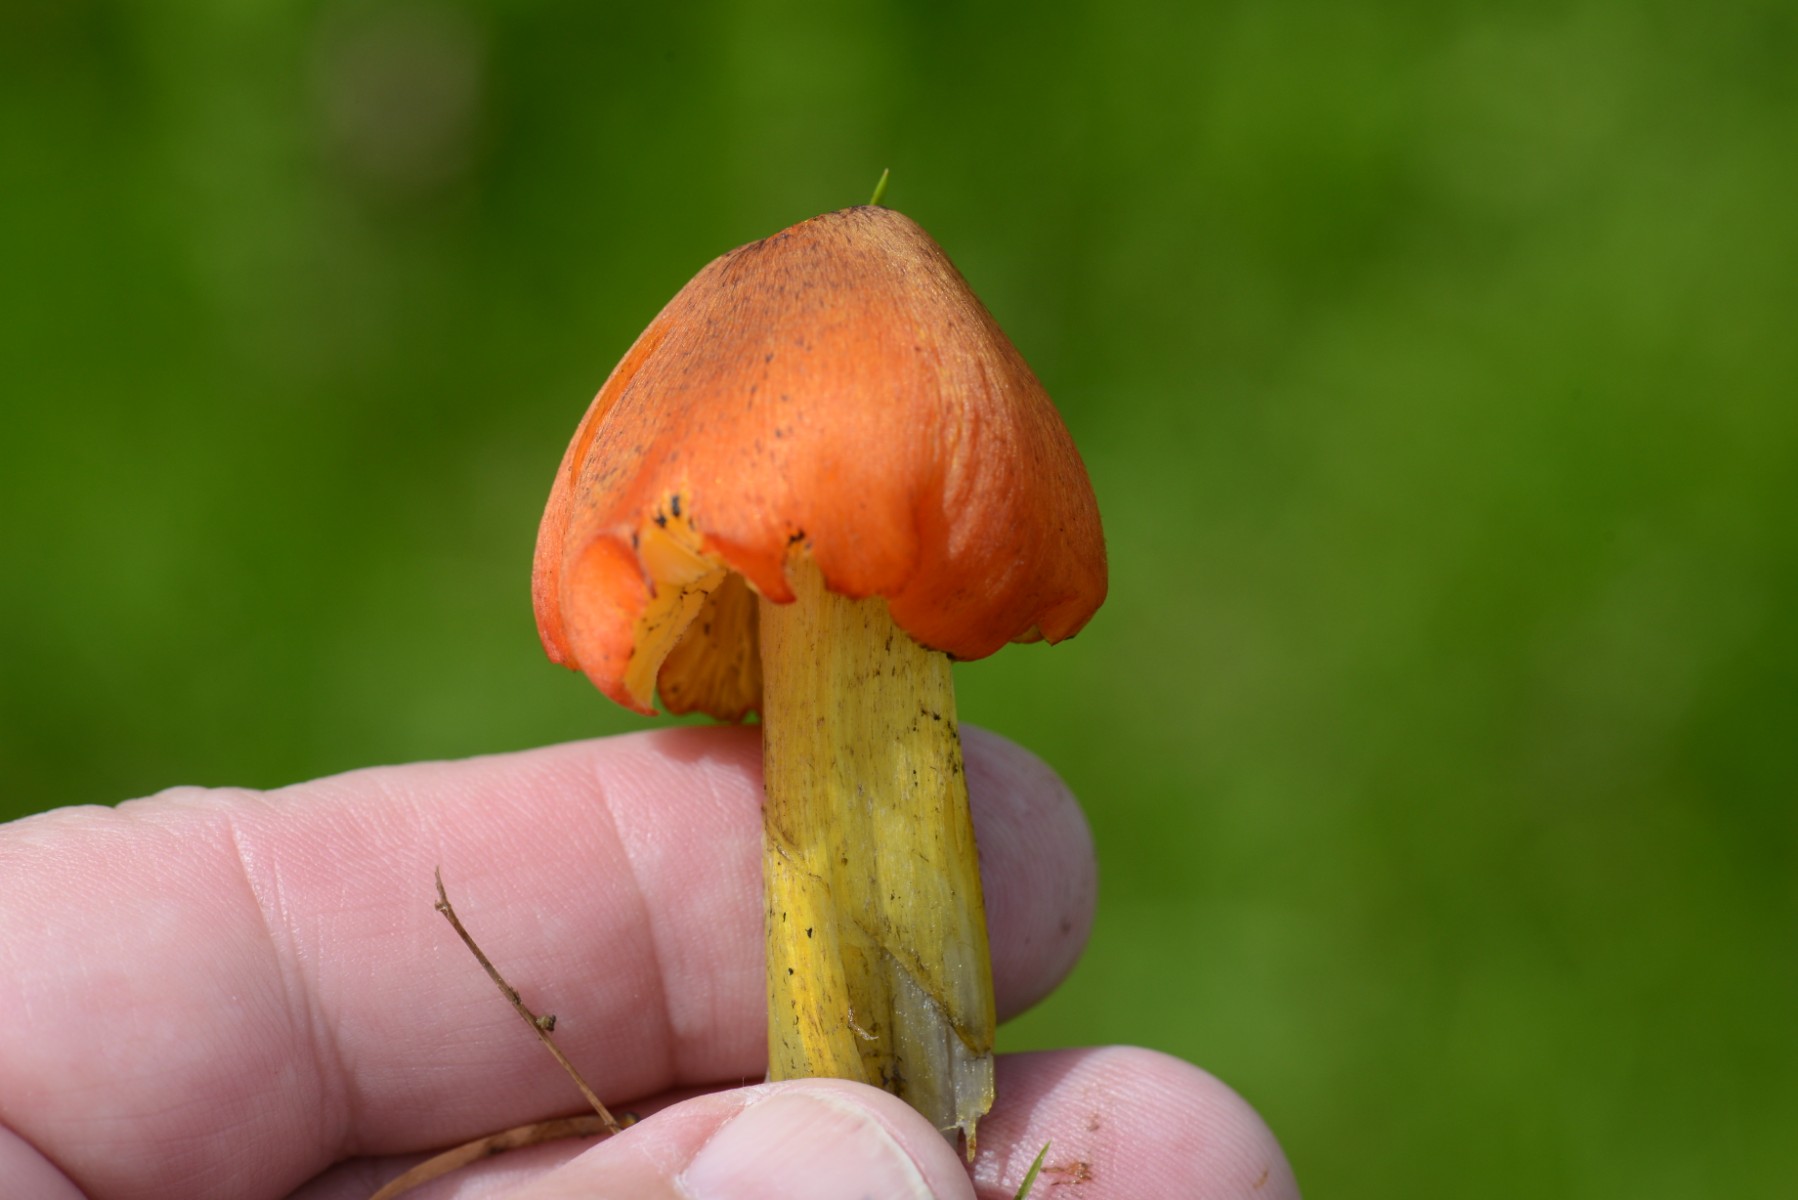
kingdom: Fungi
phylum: Basidiomycota
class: Agaricomycetes
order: Agaricales
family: Hygrophoraceae
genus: Hygrocybe
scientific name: Hygrocybe conica
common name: kegle-vokshat
